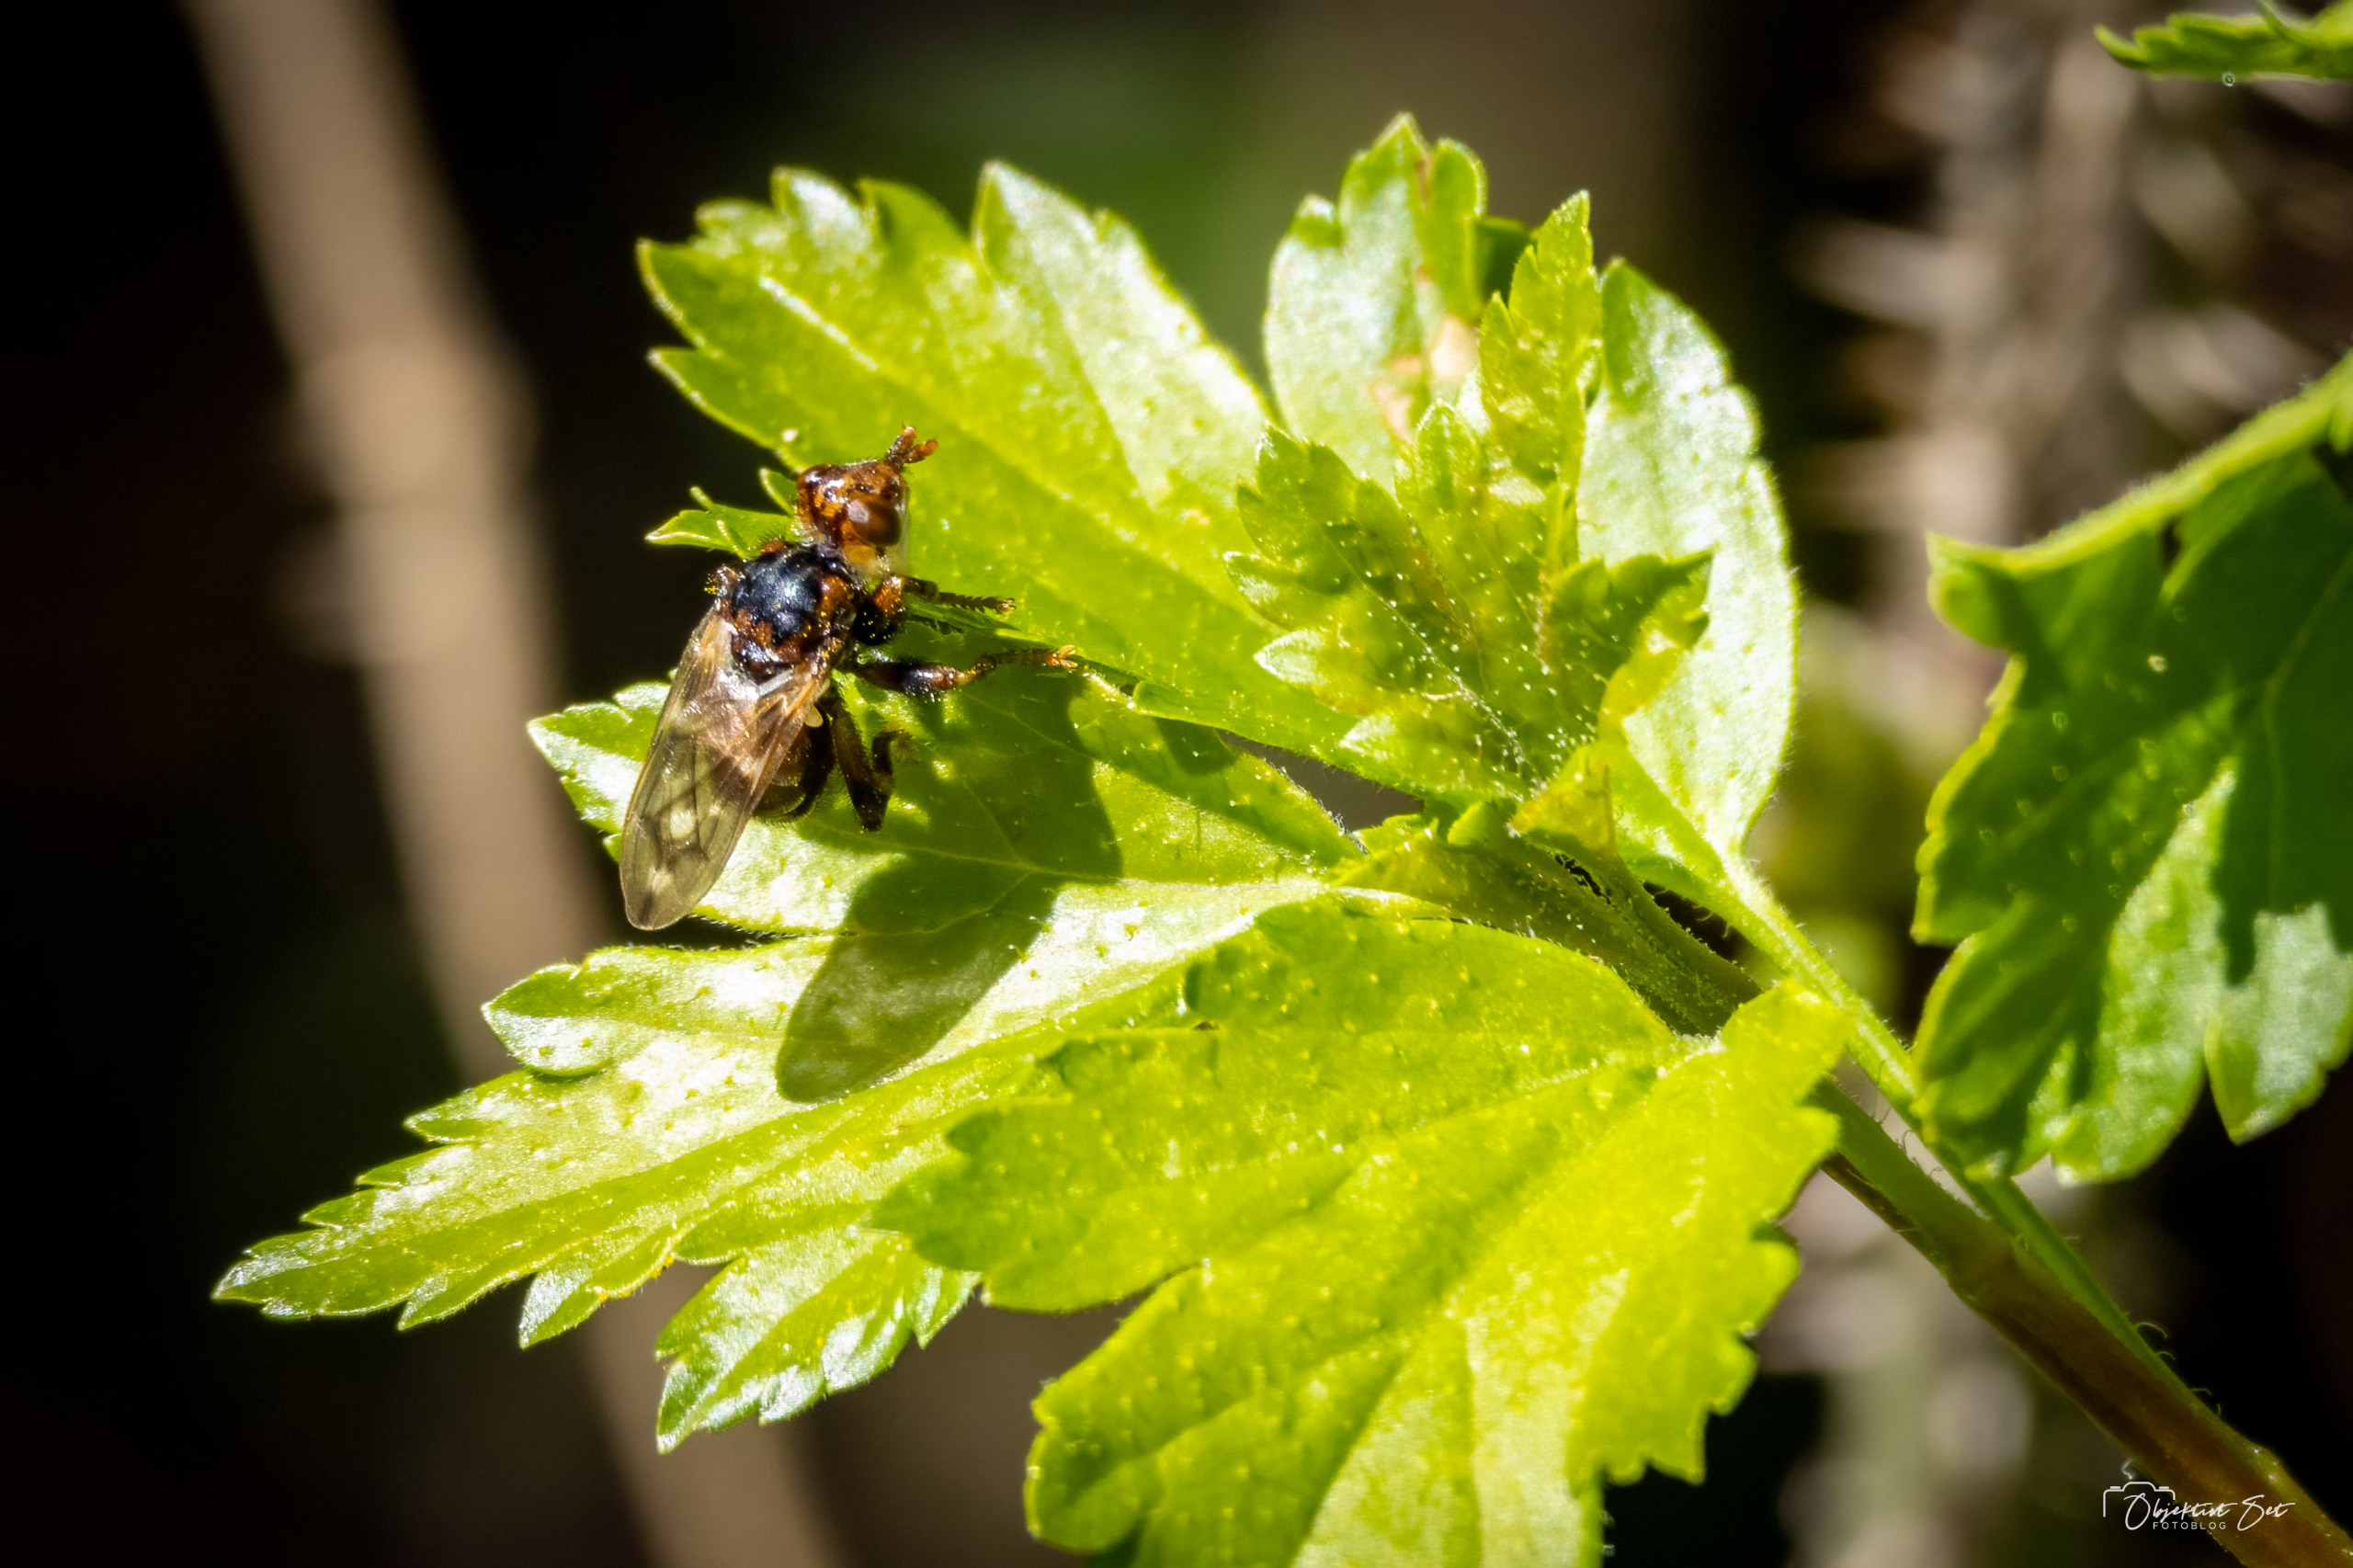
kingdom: Animalia
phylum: Arthropoda
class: Insecta
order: Diptera
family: Conopidae
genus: Myopa
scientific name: Myopa buccata
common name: Brun hvepseflue
